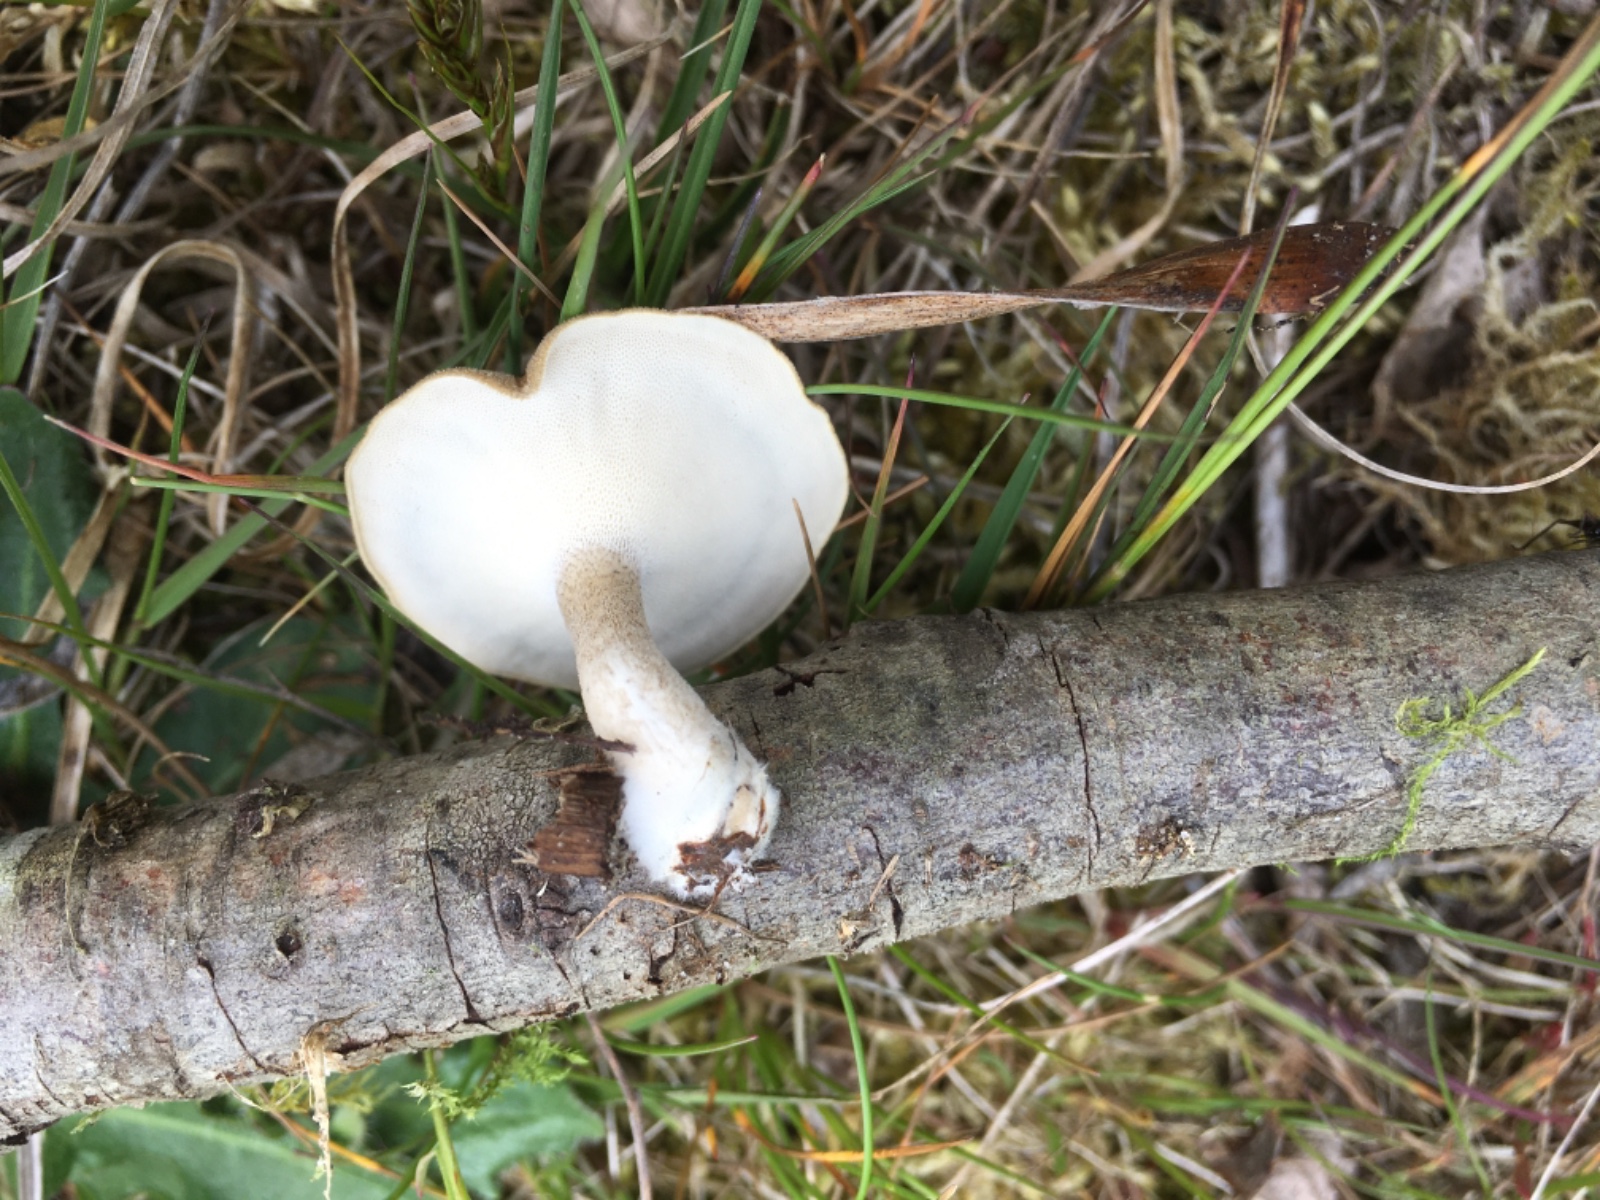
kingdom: Fungi
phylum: Basidiomycota
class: Agaricomycetes
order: Polyporales
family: Polyporaceae
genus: Lentinus
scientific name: Lentinus substrictus
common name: forårs-stilkporesvamp
